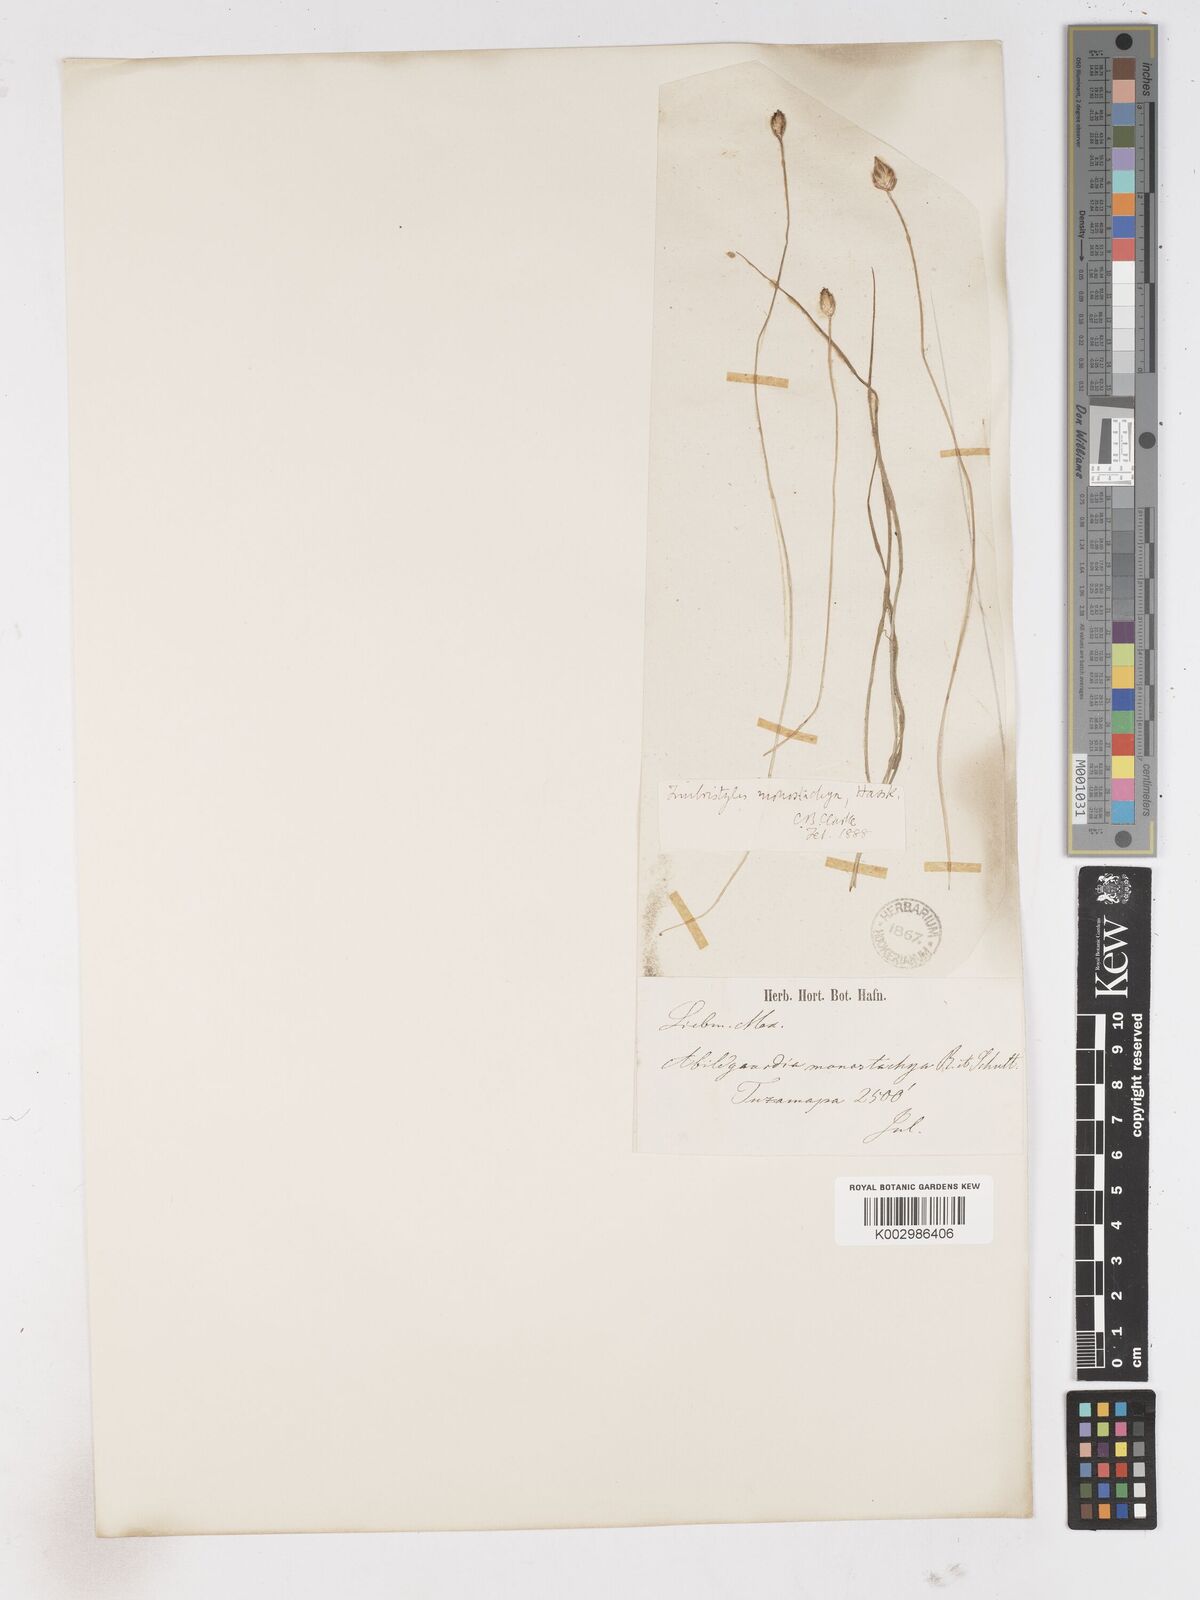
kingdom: Plantae
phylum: Tracheophyta
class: Liliopsida
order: Poales
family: Cyperaceae
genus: Abildgaardia
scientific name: Abildgaardia ovata
